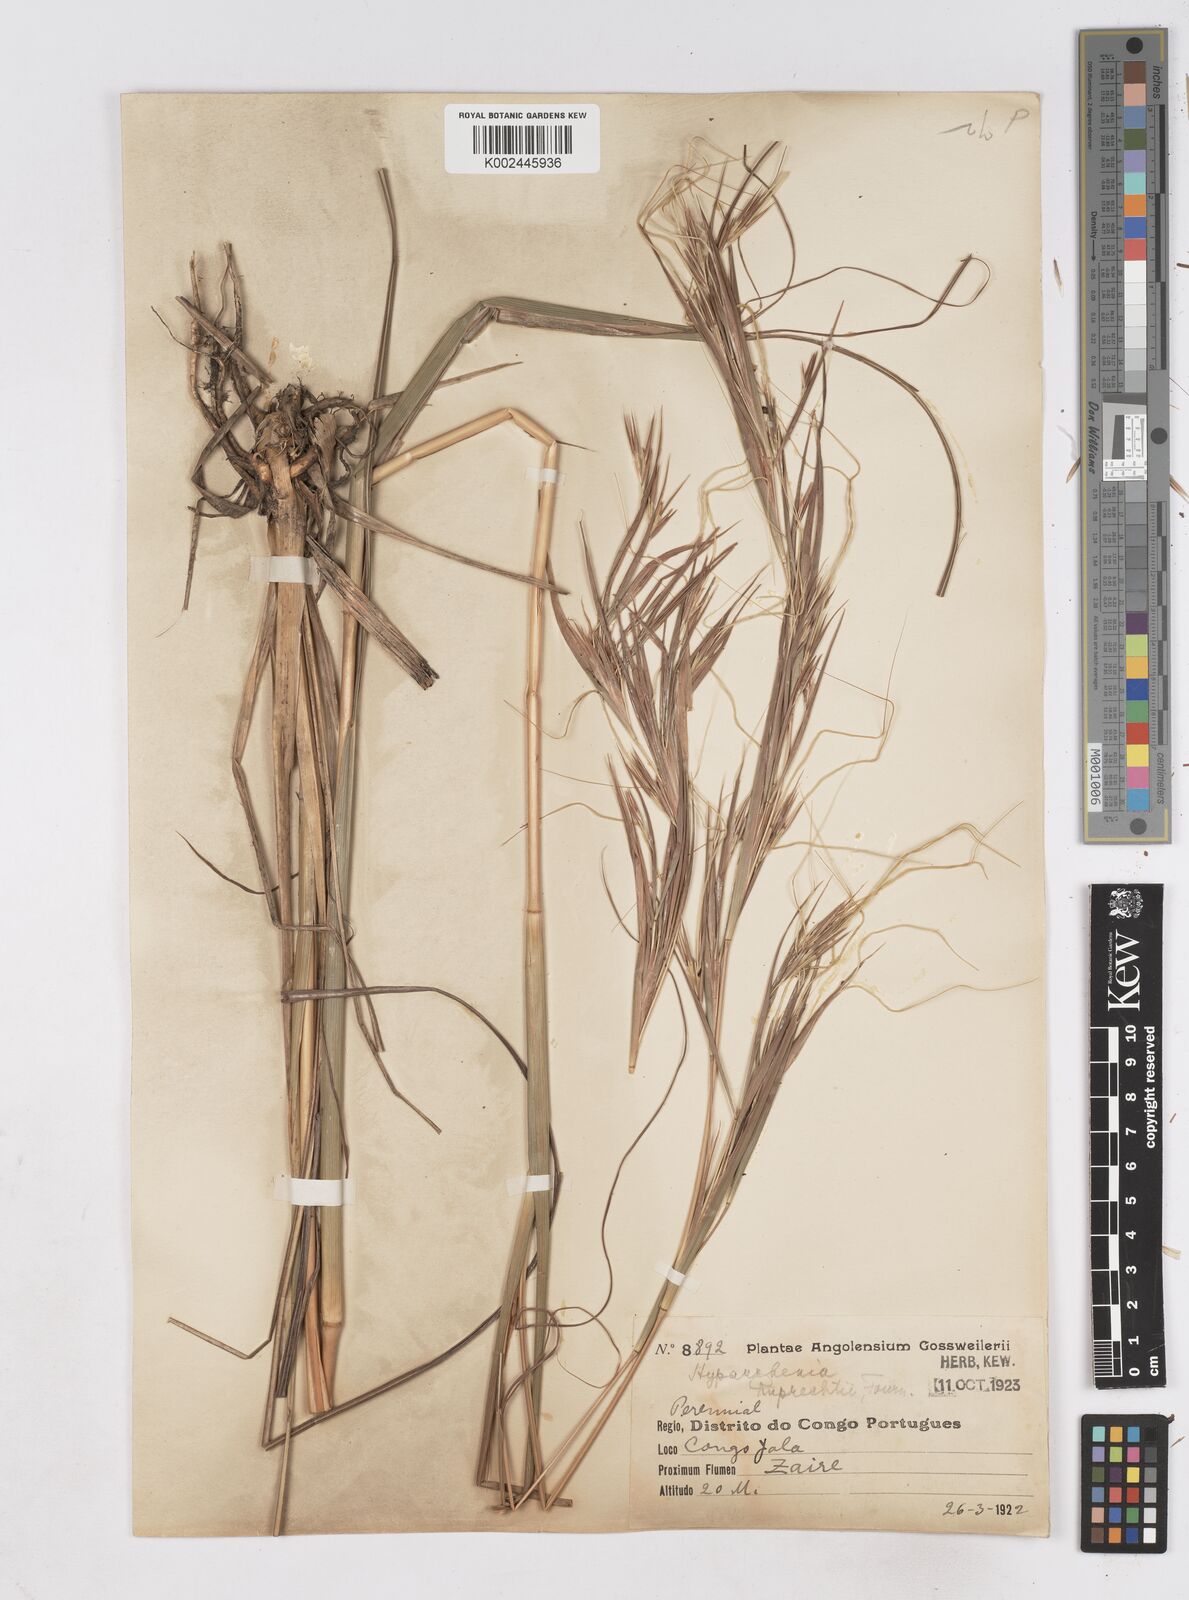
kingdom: Plantae
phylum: Tracheophyta
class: Liliopsida
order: Poales
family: Poaceae
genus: Hyperthelia
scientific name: Hyperthelia dissoluta
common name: Yellow thatching grass
